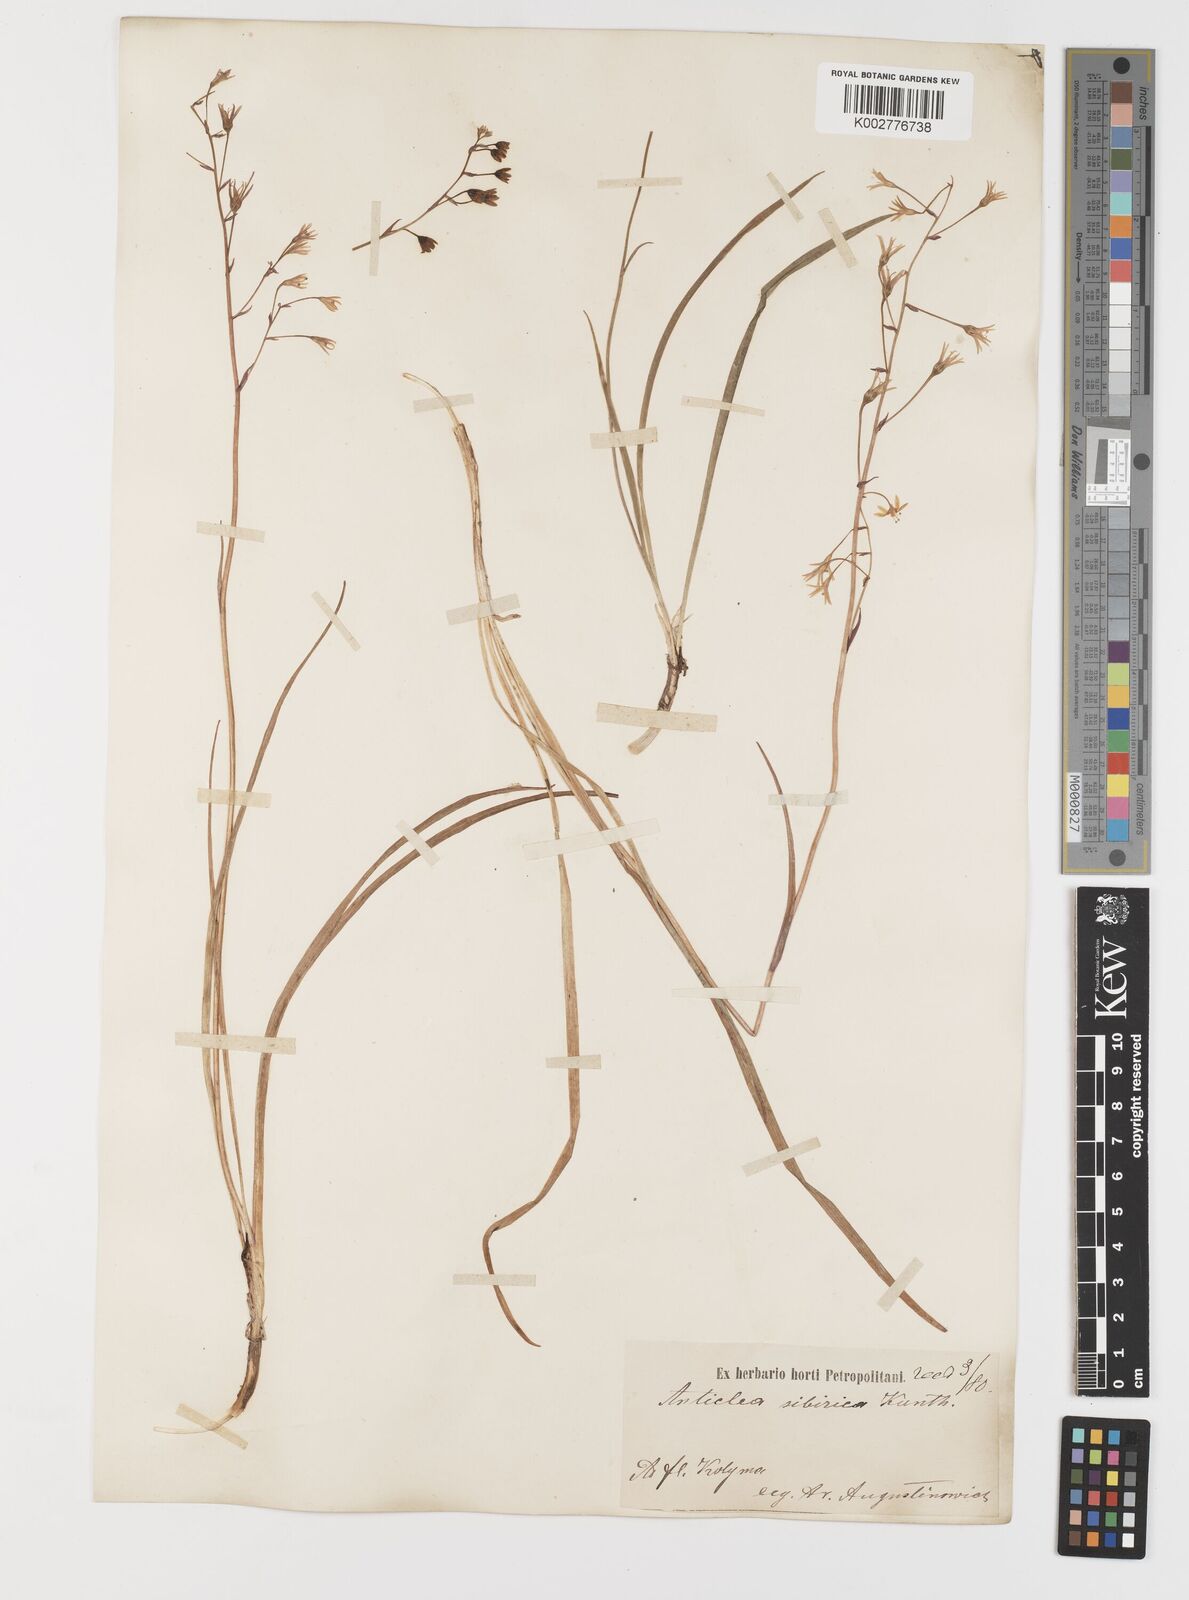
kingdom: Plantae
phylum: Tracheophyta
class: Liliopsida
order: Liliales
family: Melanthiaceae
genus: Anticlea
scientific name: Anticlea sibirica
